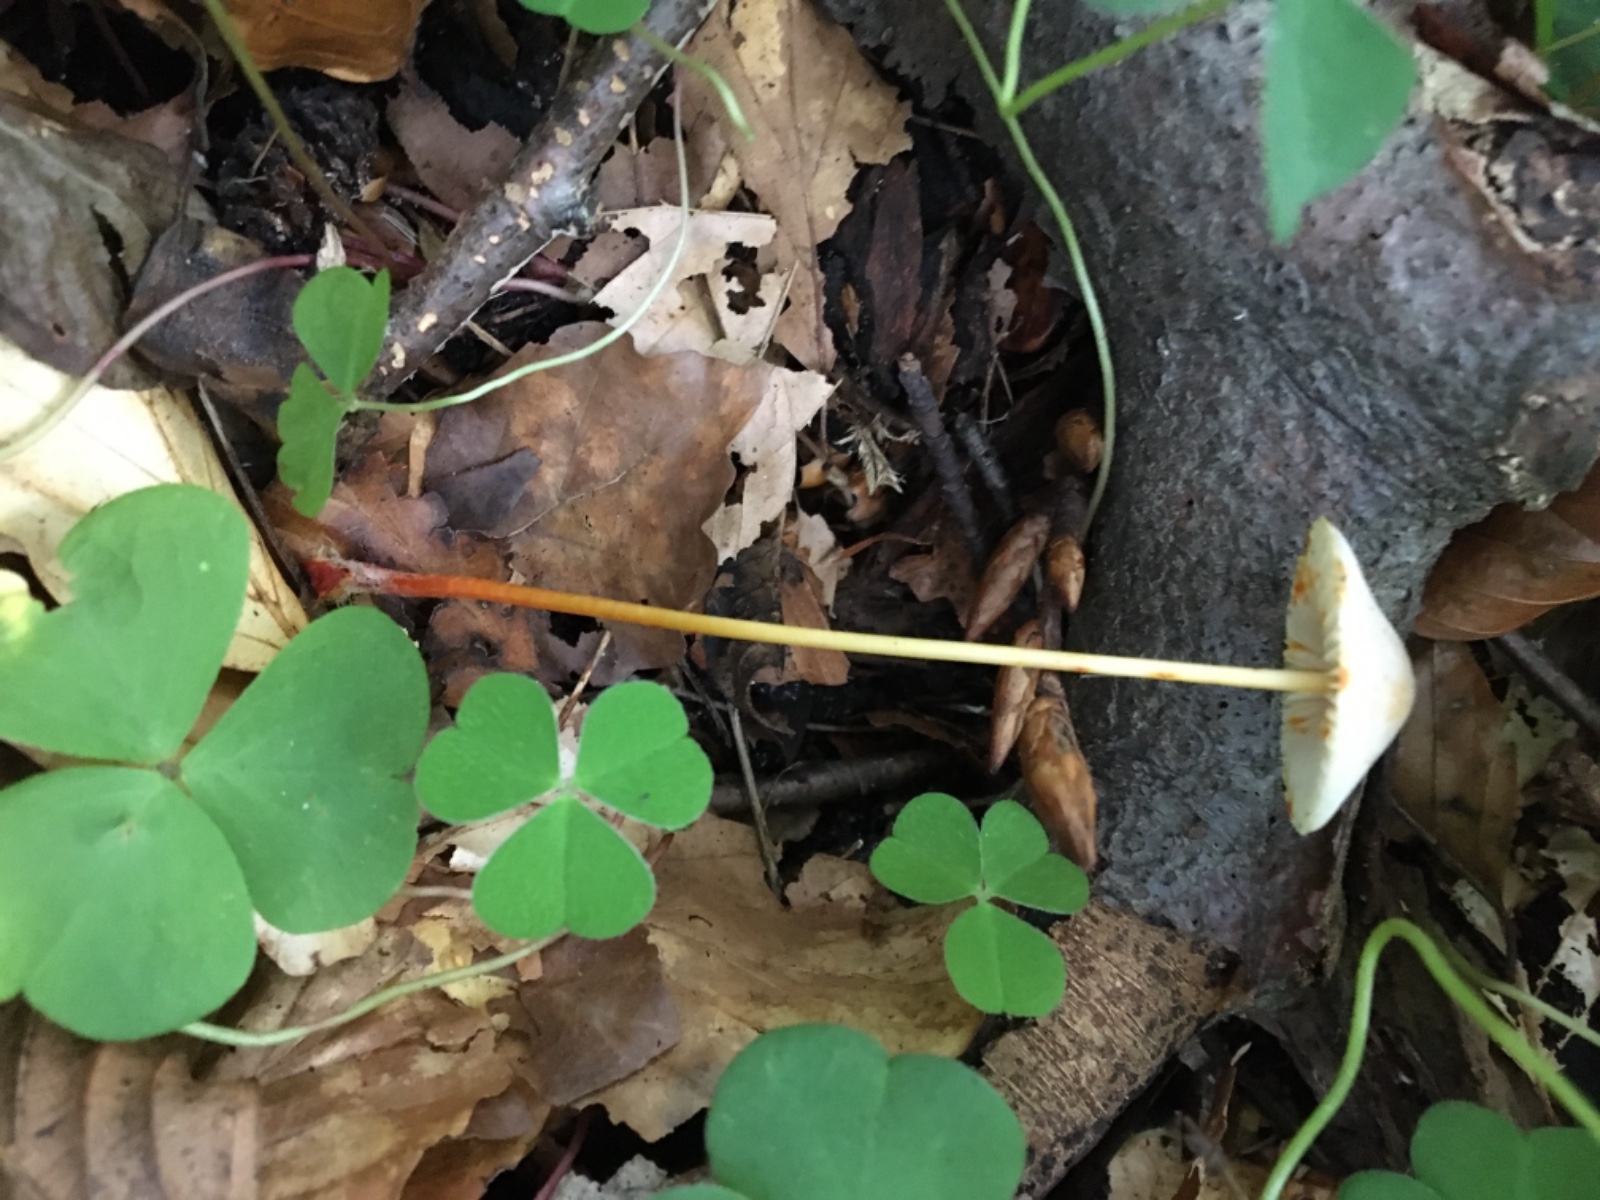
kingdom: Fungi
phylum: Basidiomycota
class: Agaricomycetes
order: Agaricales
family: Mycenaceae
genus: Mycena
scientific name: Mycena crocata
